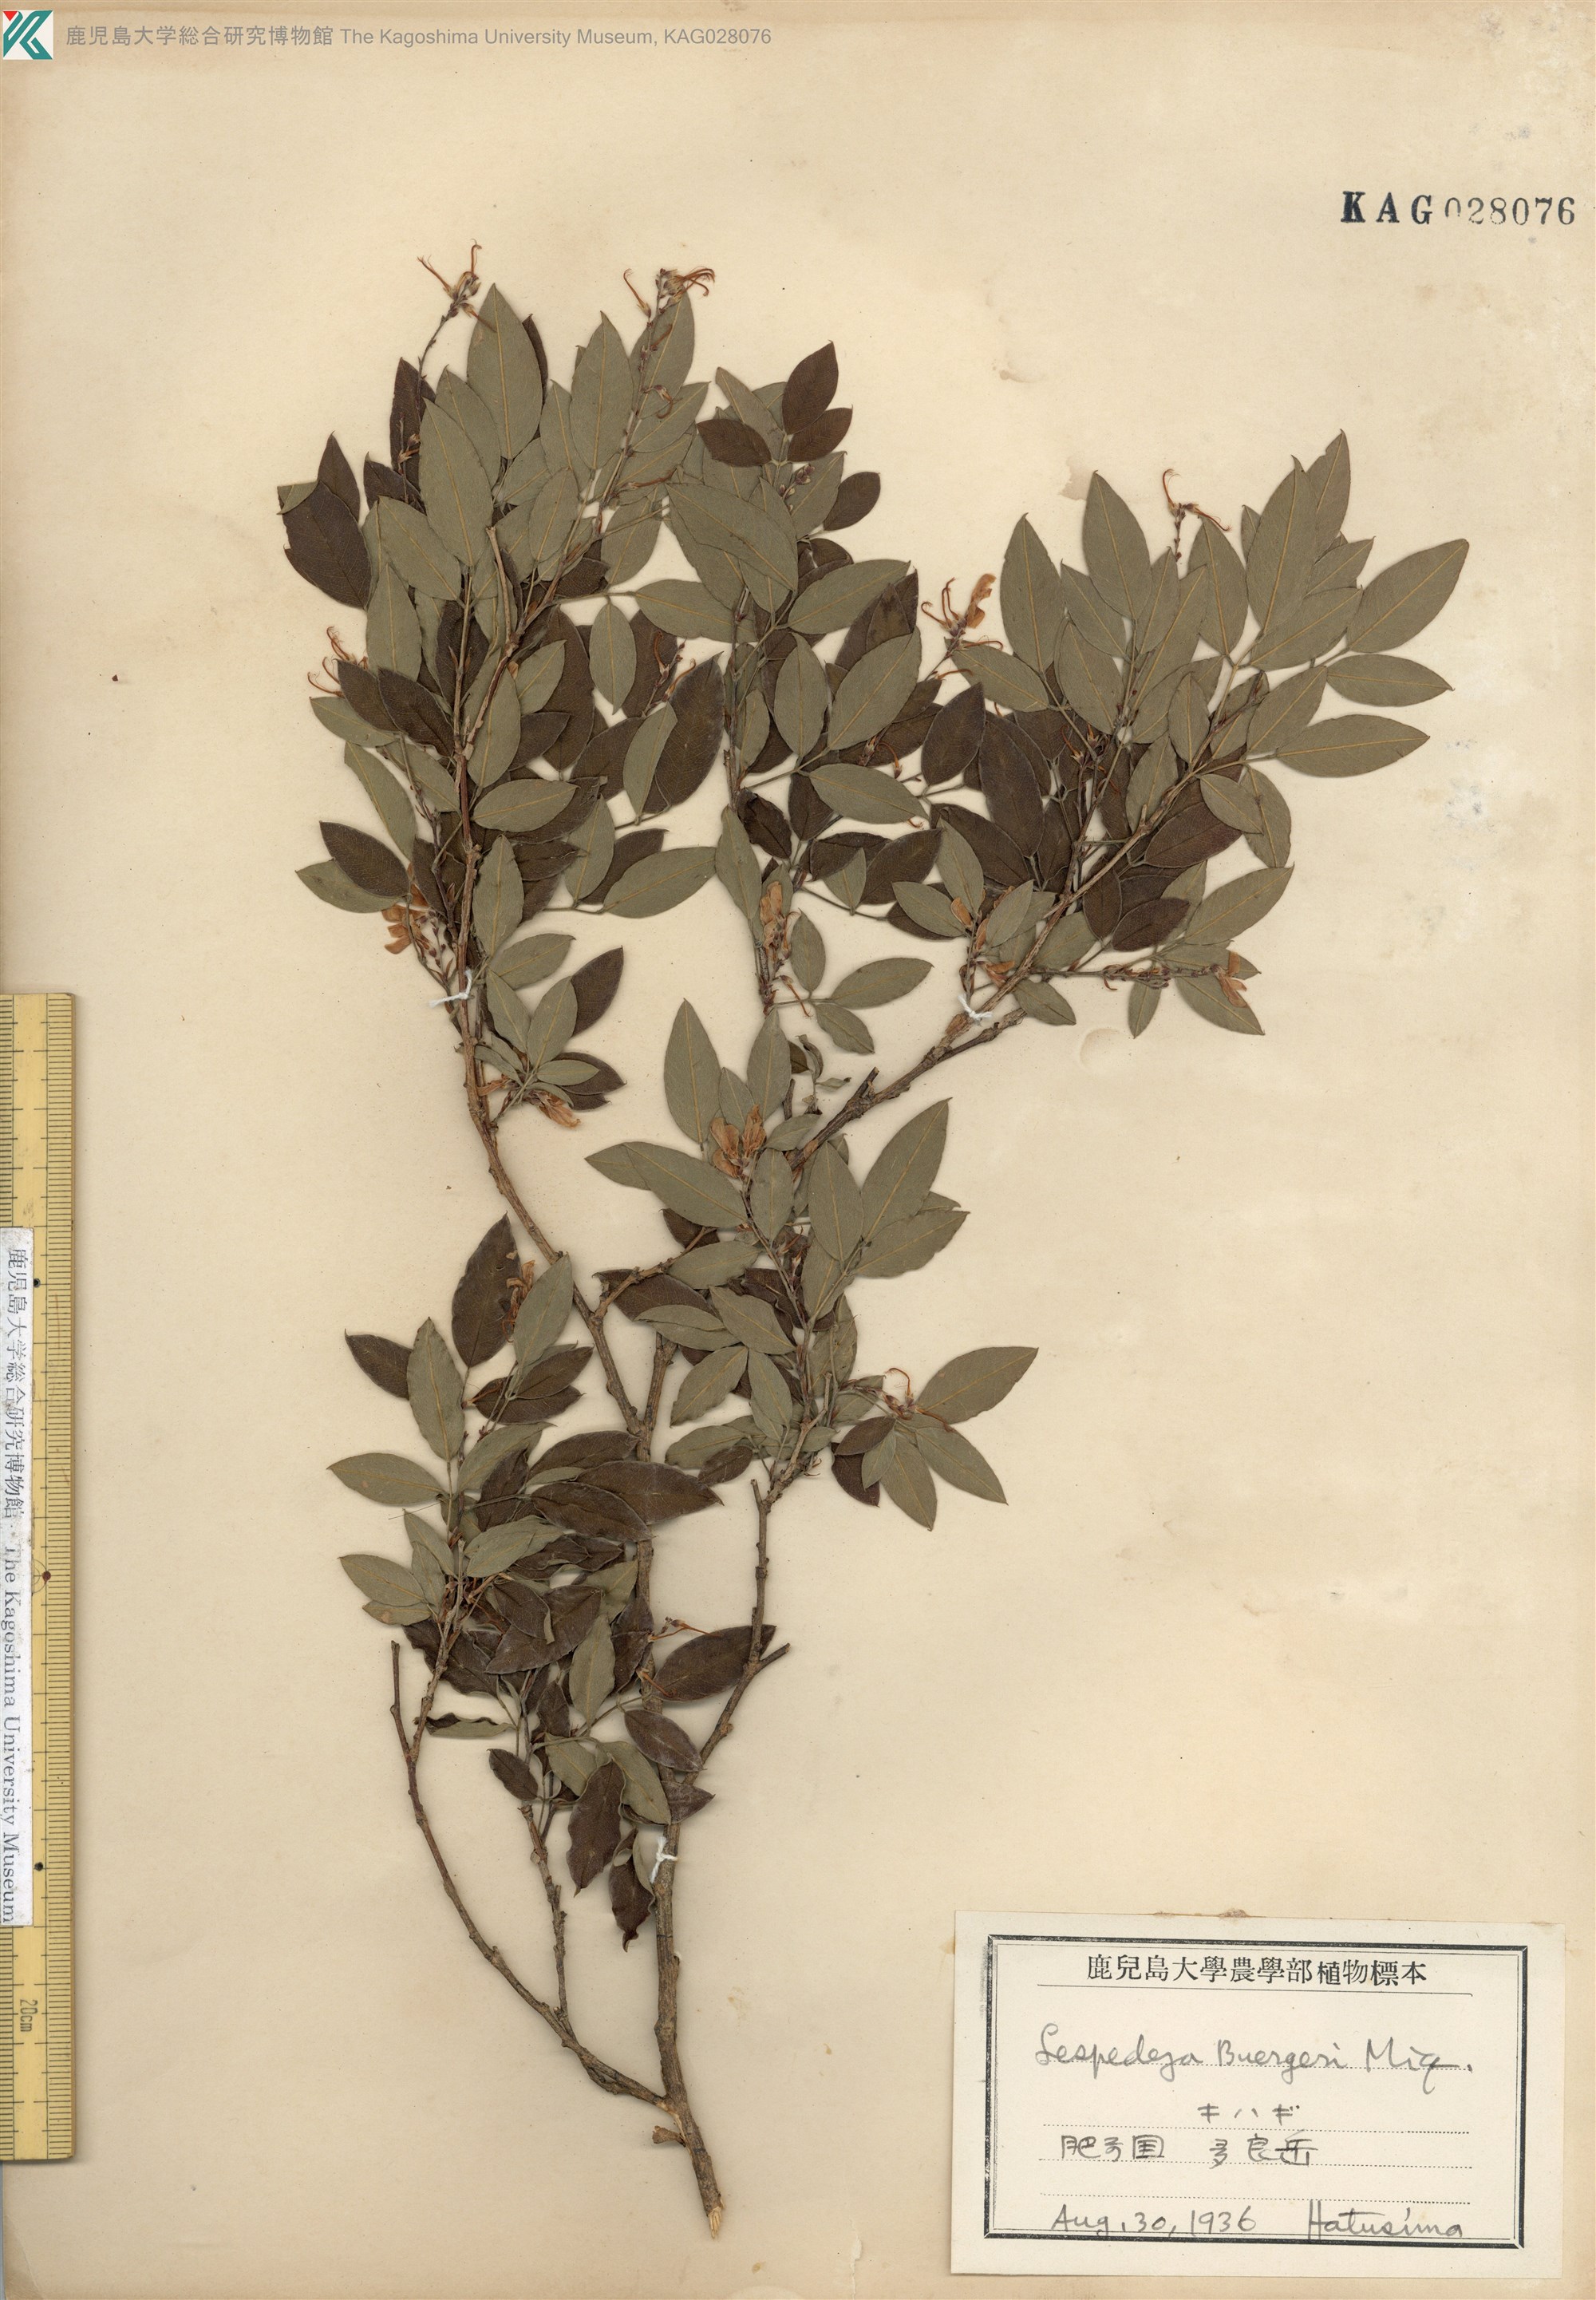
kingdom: Plantae
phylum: Tracheophyta
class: Magnoliopsida
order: Fabales
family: Fabaceae
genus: Lespedeza
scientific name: Lespedeza buergeri
